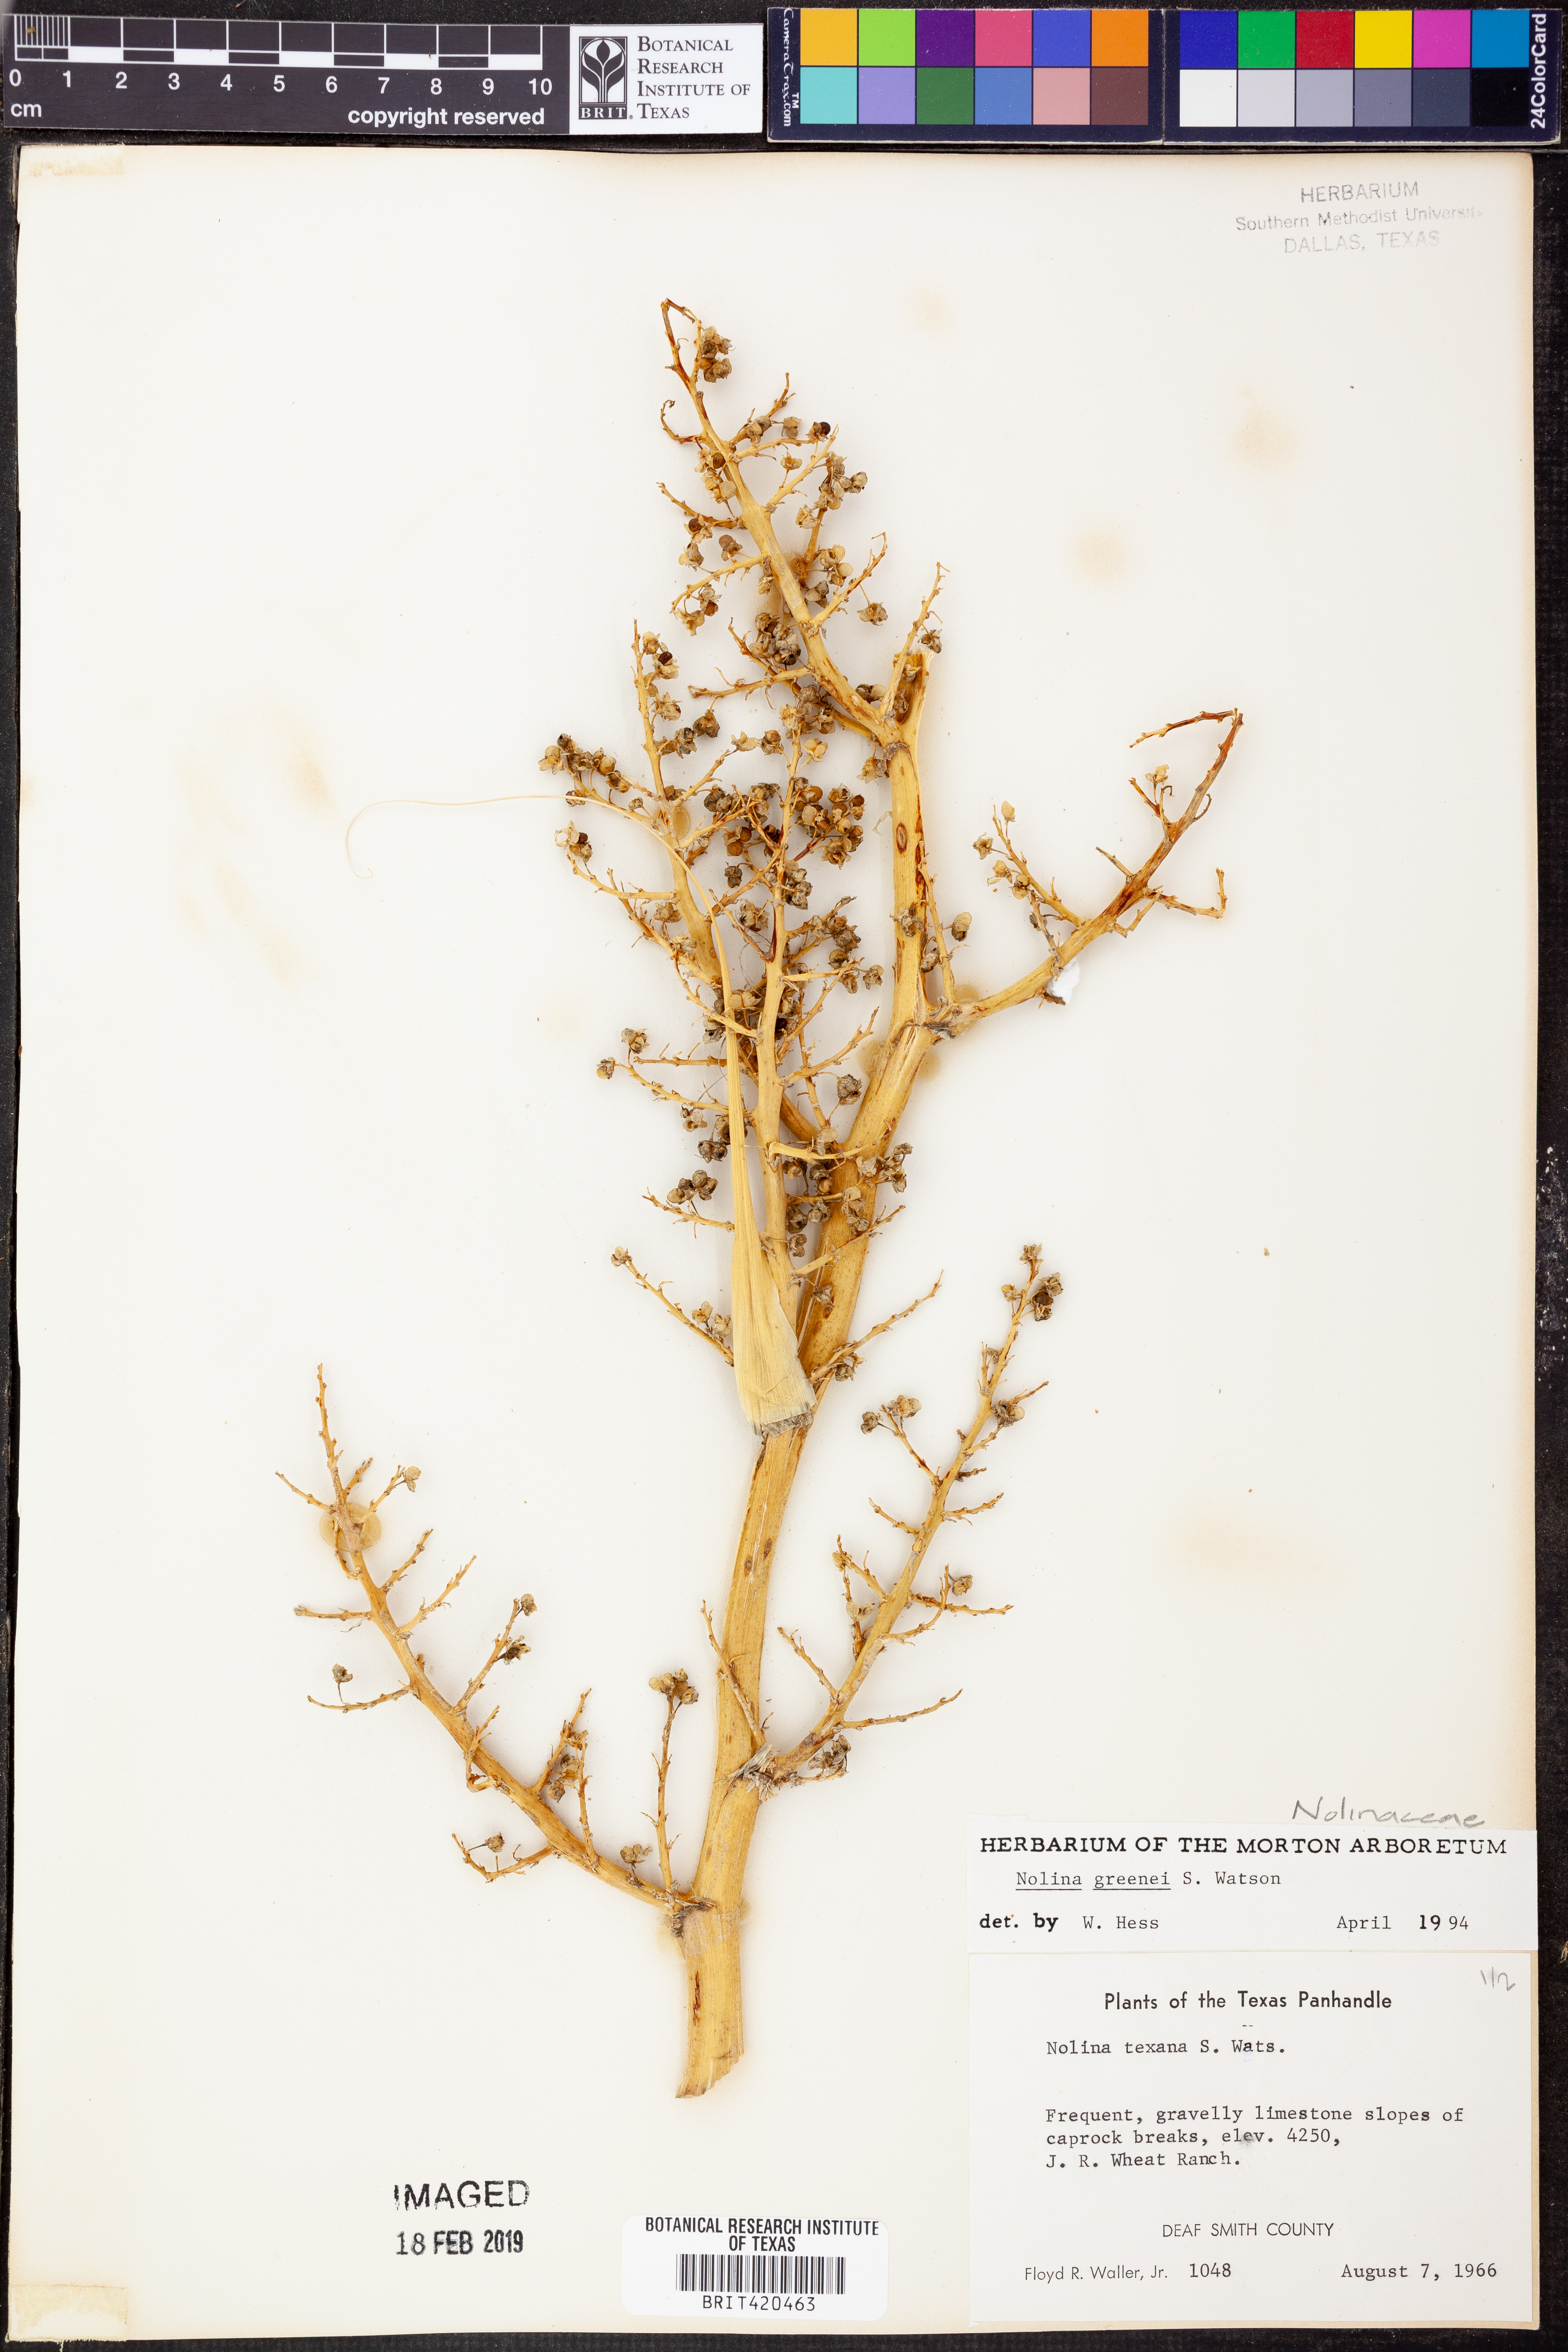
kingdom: Plantae
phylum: Tracheophyta
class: Liliopsida
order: Asparagales
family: Asparagaceae
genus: Nolina
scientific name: Nolina greenei
